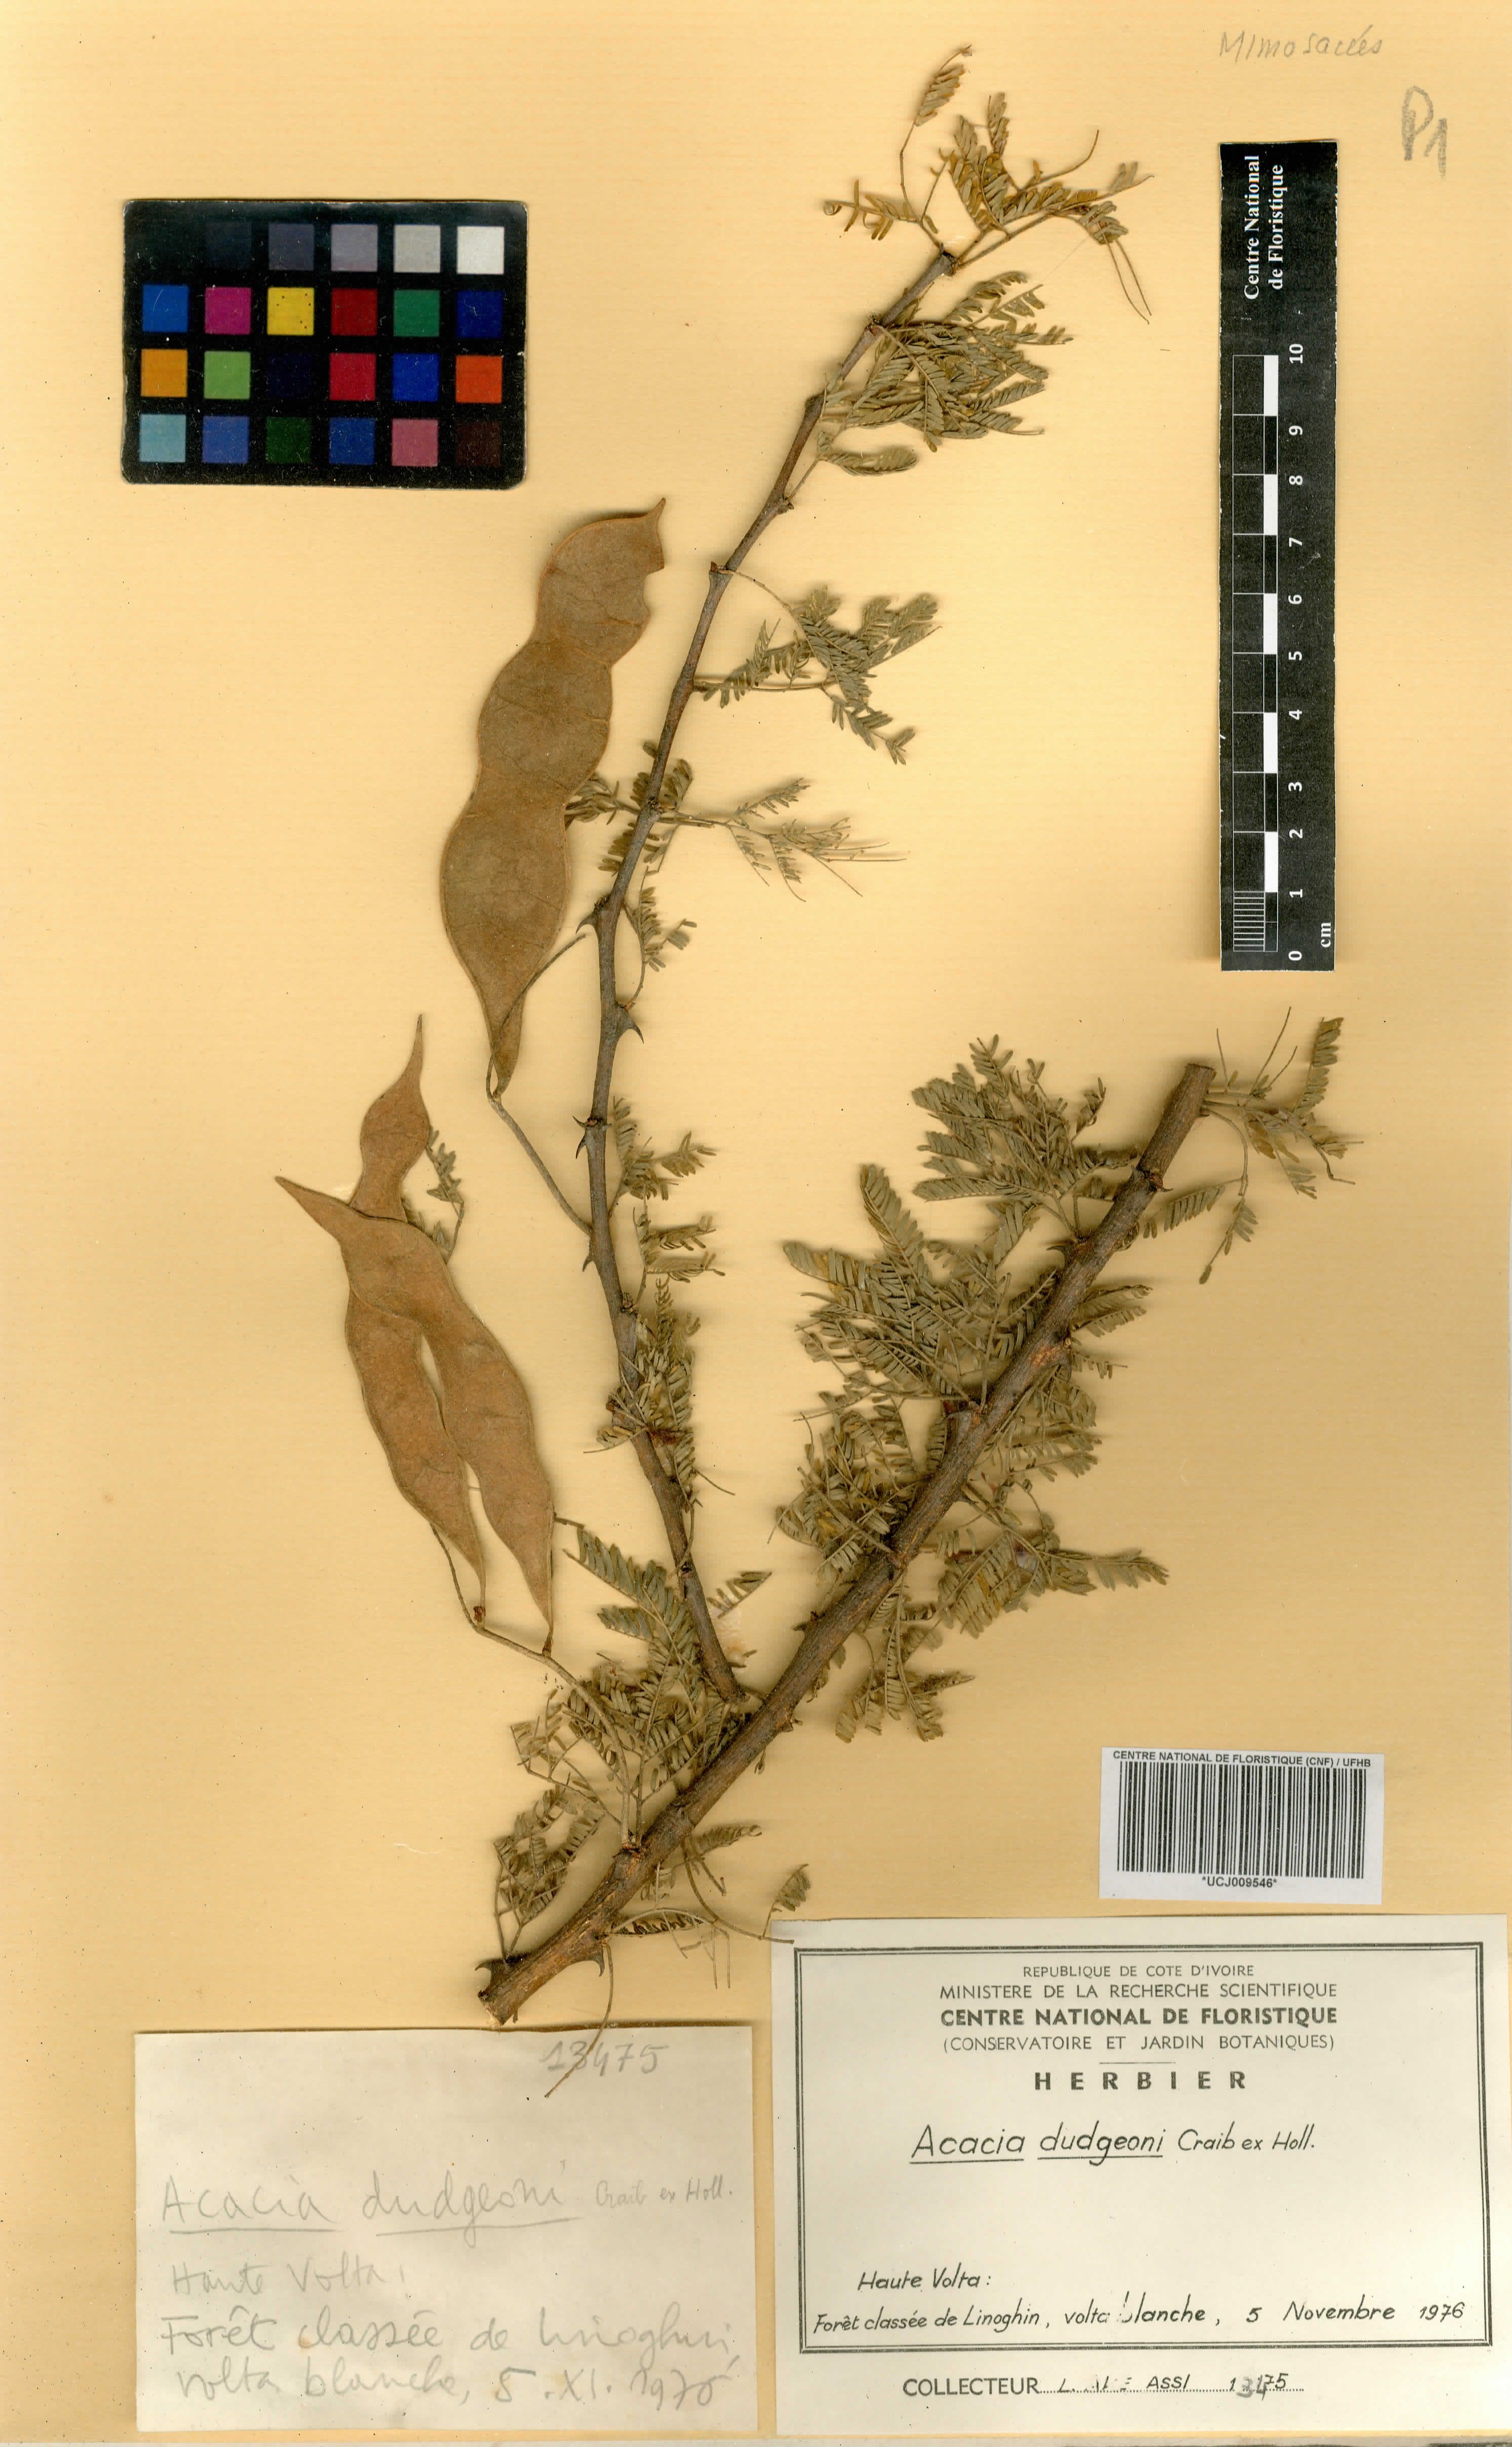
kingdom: Plantae
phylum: Tracheophyta
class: Magnoliopsida
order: Fabales
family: Fabaceae
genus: Senegalia
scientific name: Senegalia dudgeonii
